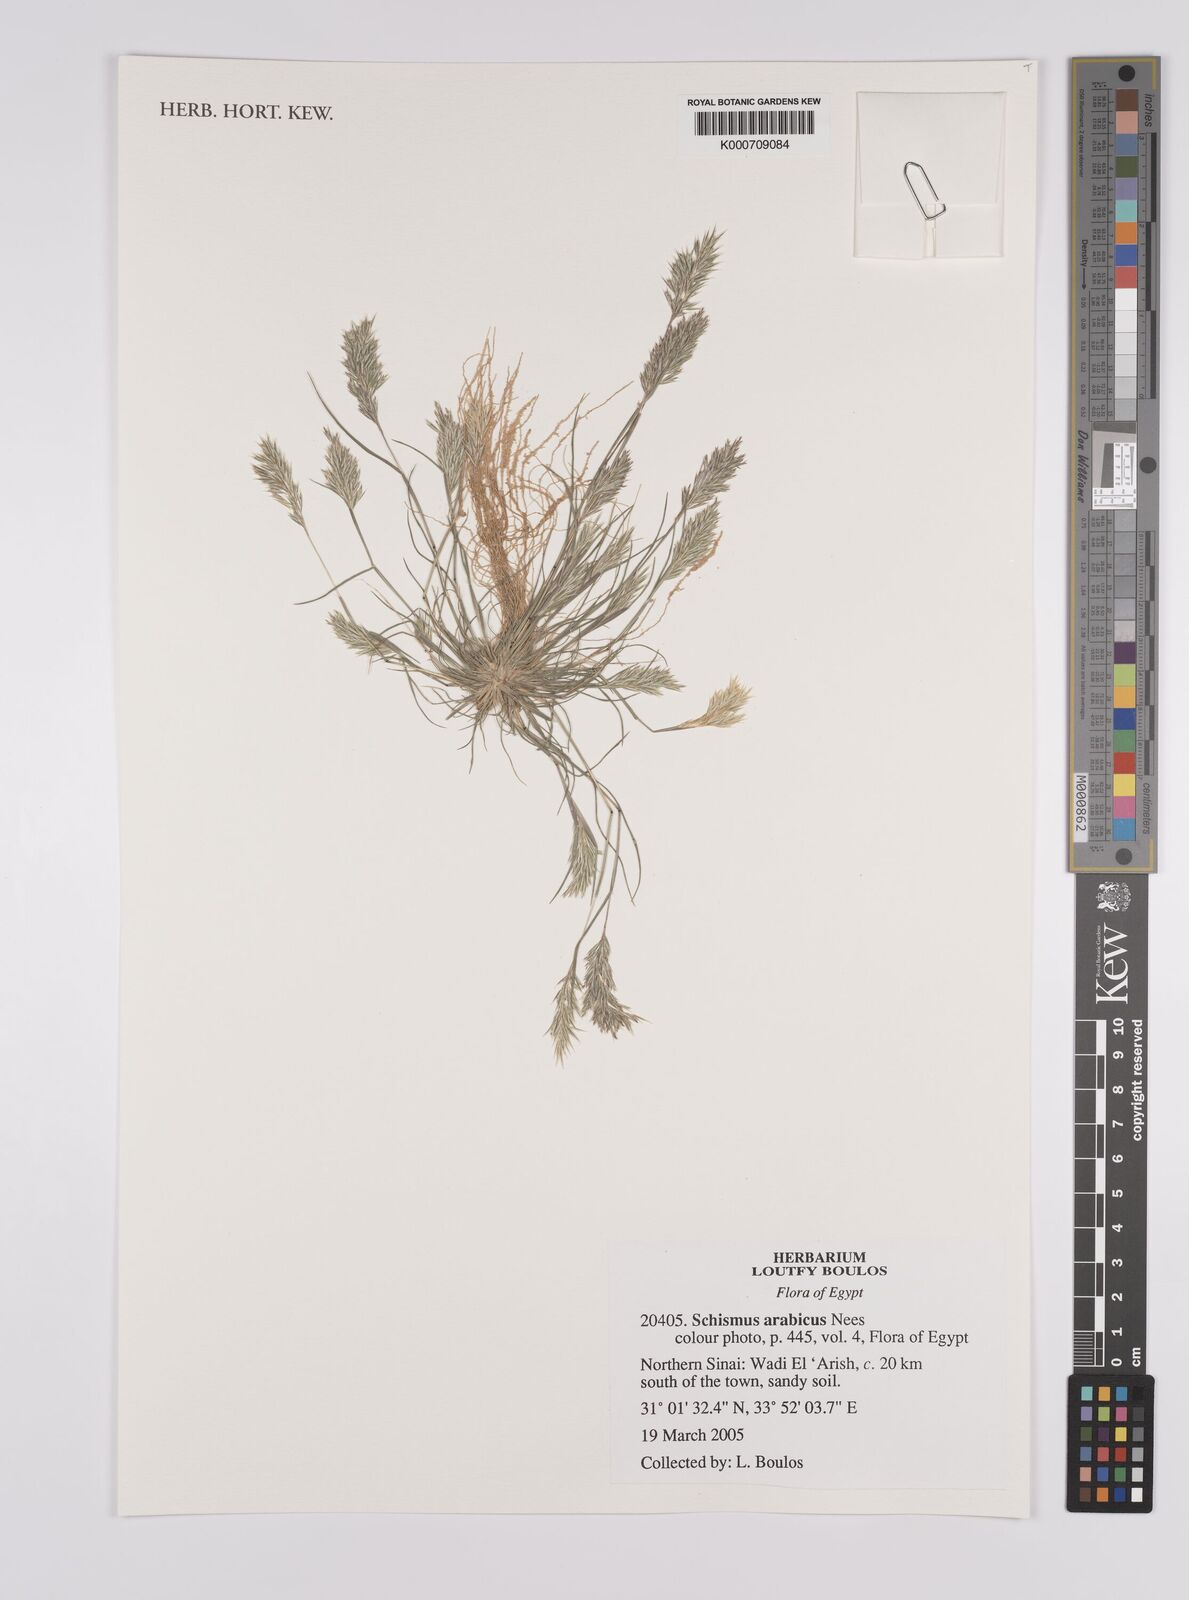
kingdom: Plantae
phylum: Tracheophyta
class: Liliopsida
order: Poales
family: Poaceae
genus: Schismus
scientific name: Schismus arabicus
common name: Arabian schismus
